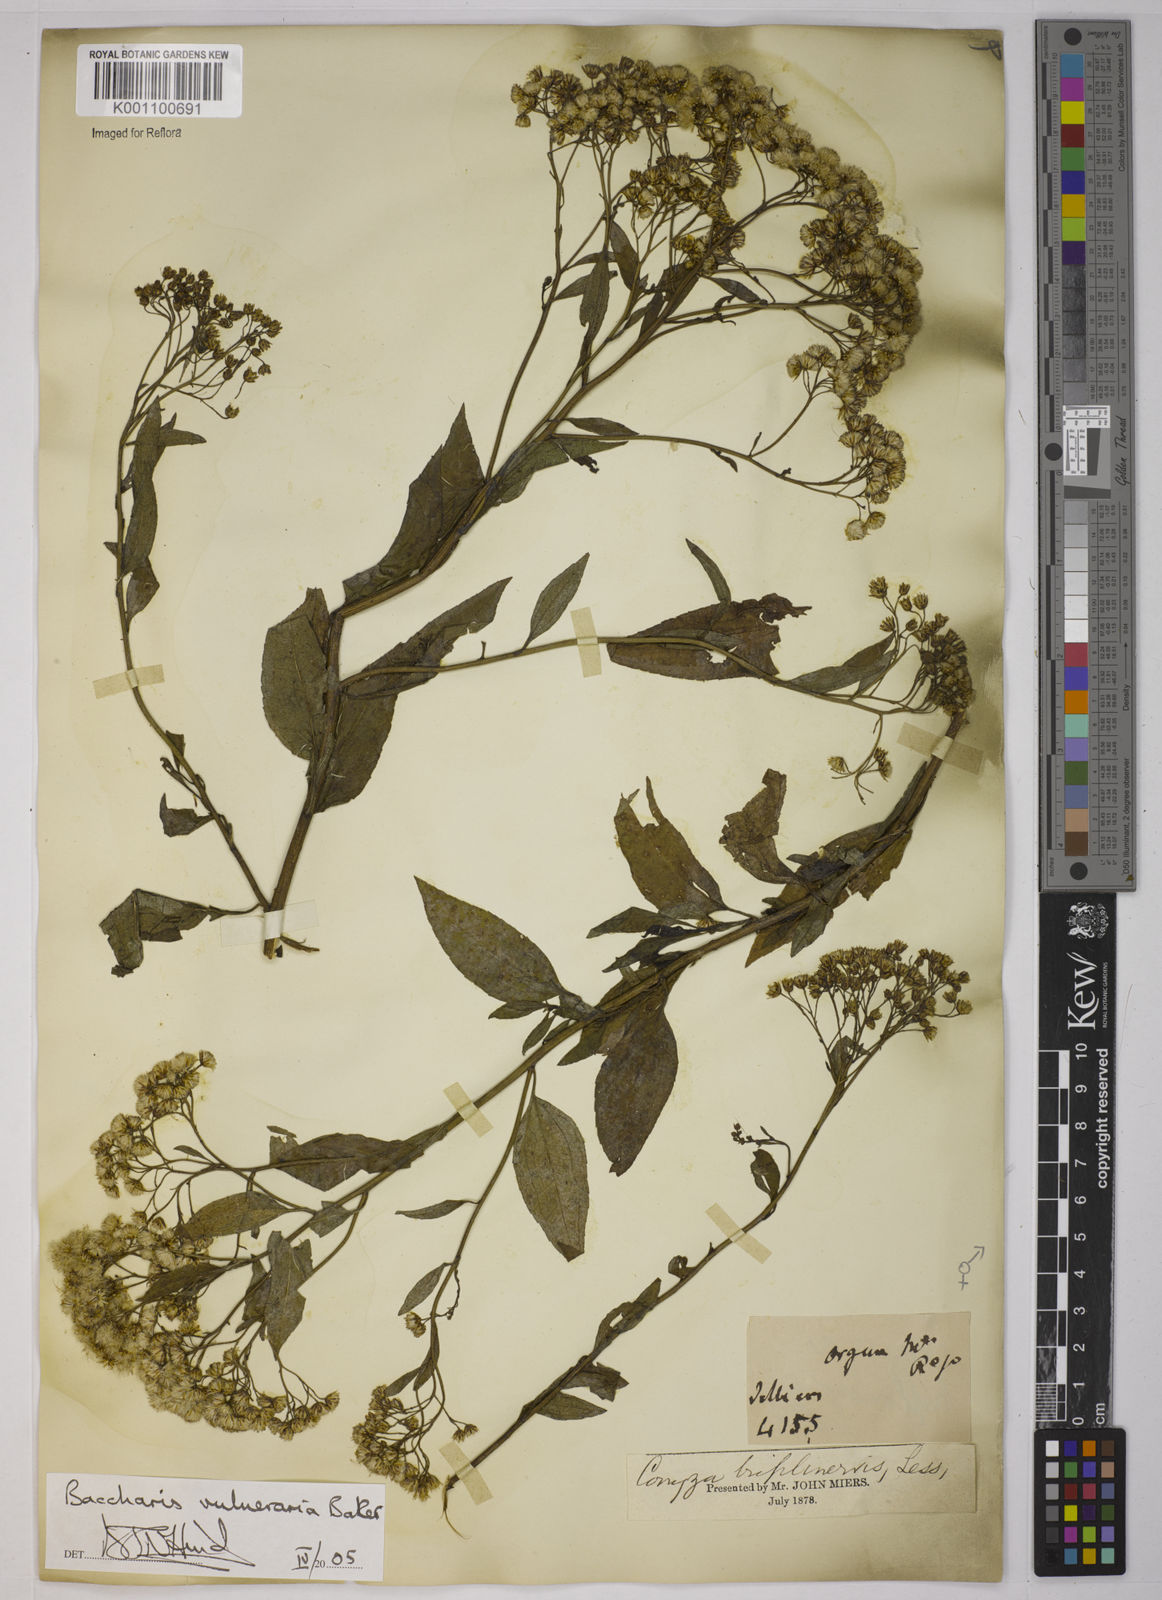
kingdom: Plantae
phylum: Tracheophyta
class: Magnoliopsida
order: Asterales
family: Asteraceae
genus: Archibaccharis
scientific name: Archibaccharis vulneraria
